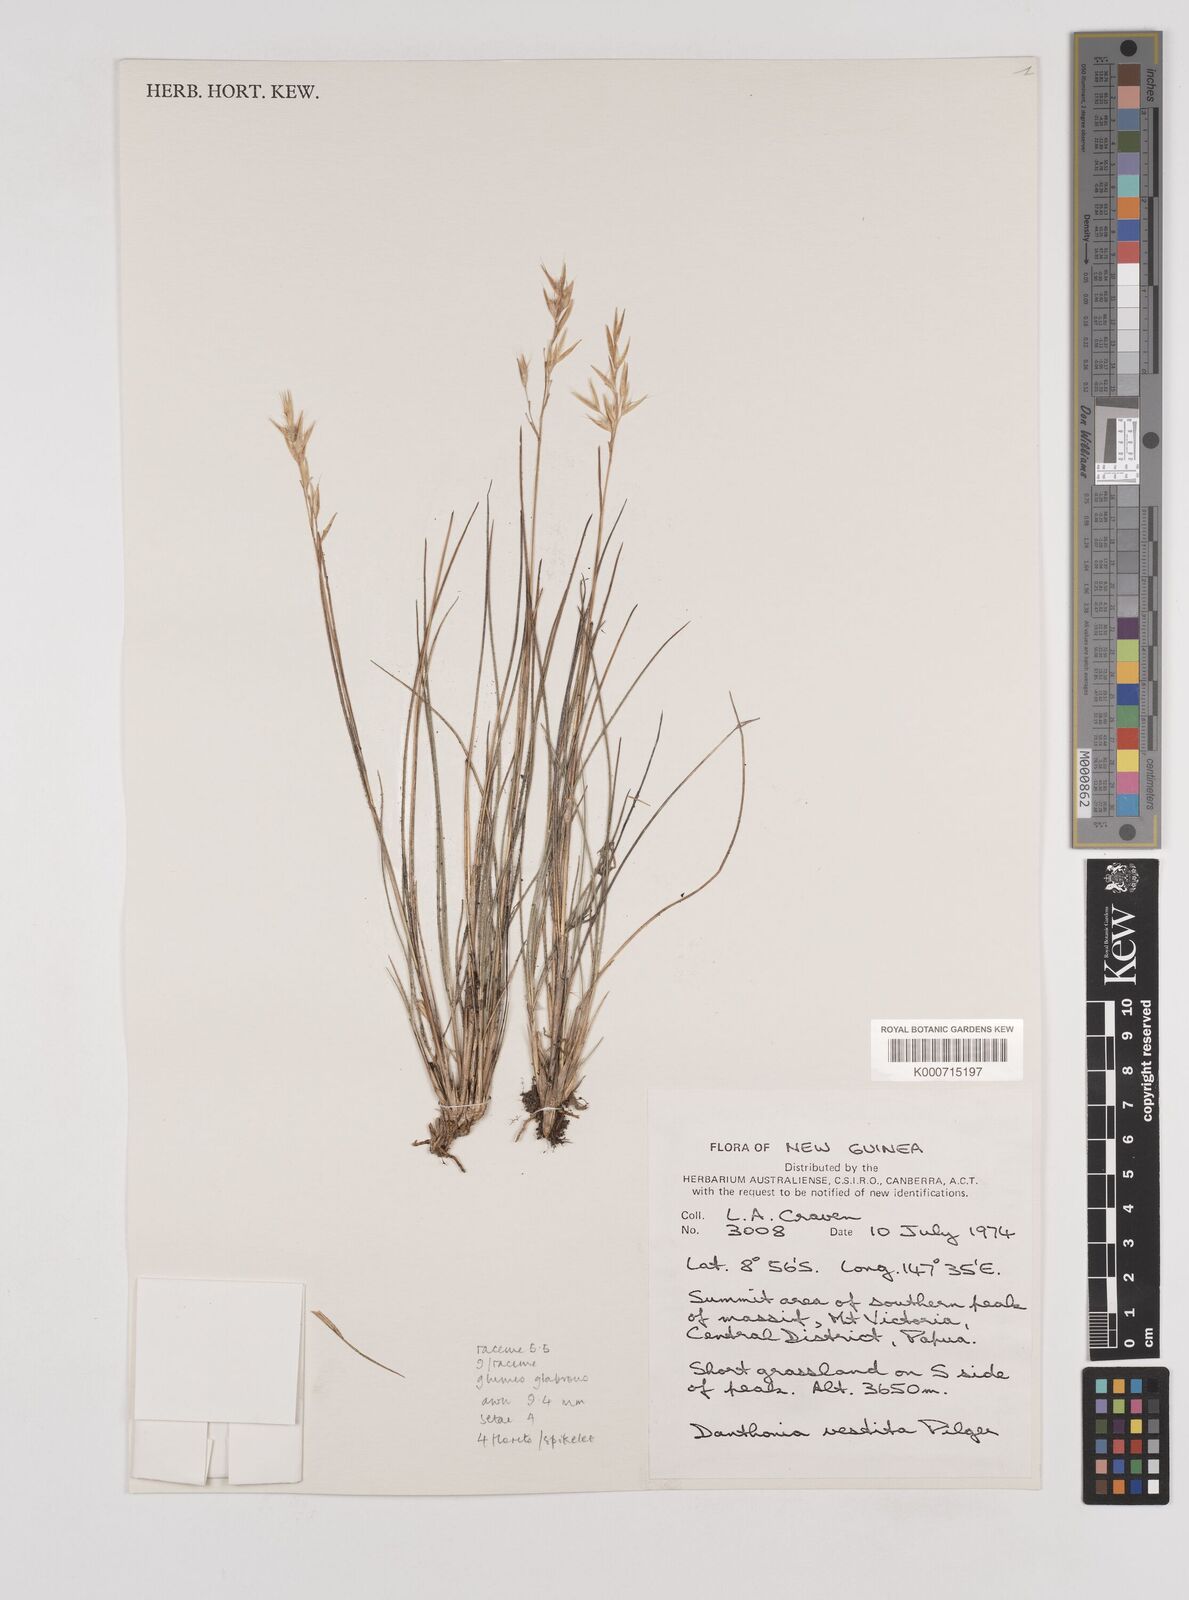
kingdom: Plantae
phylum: Tracheophyta
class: Liliopsida
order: Poales
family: Poaceae
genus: Rytidosperma
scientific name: Rytidosperma vestitum
